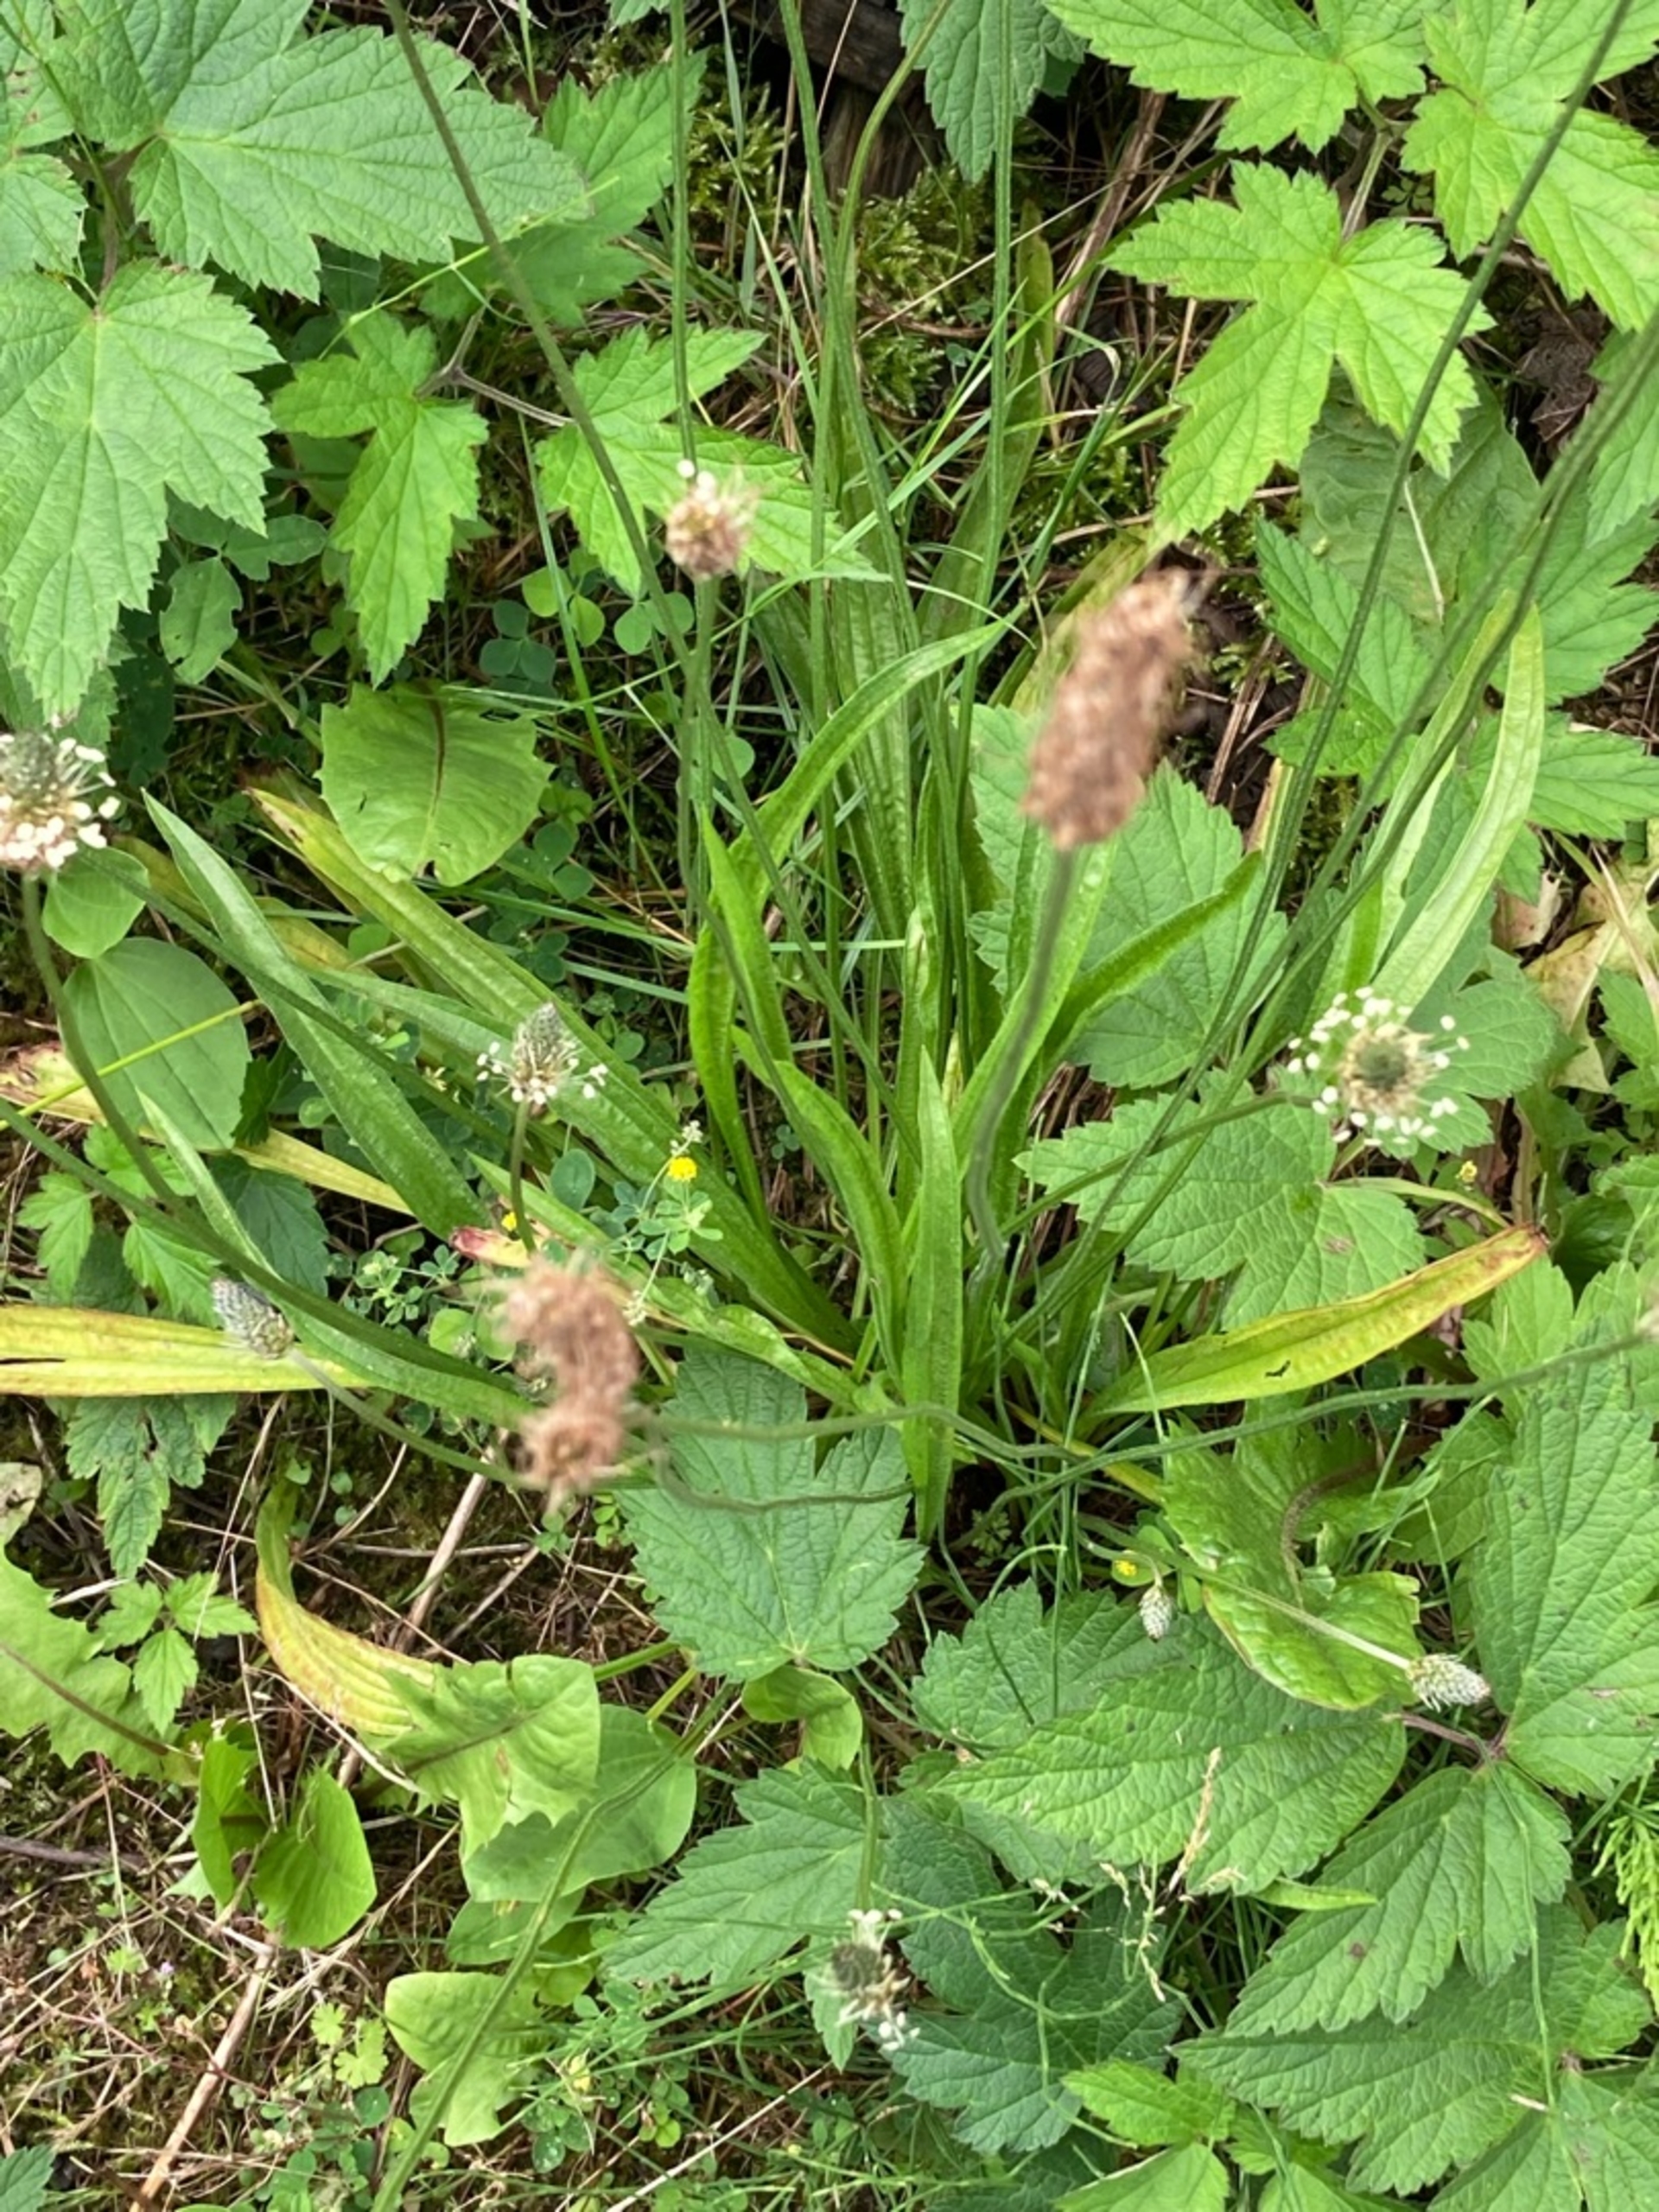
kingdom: Plantae
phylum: Tracheophyta
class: Magnoliopsida
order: Lamiales
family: Plantaginaceae
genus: Plantago
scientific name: Plantago lanceolata
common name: Lancet-vejbred
